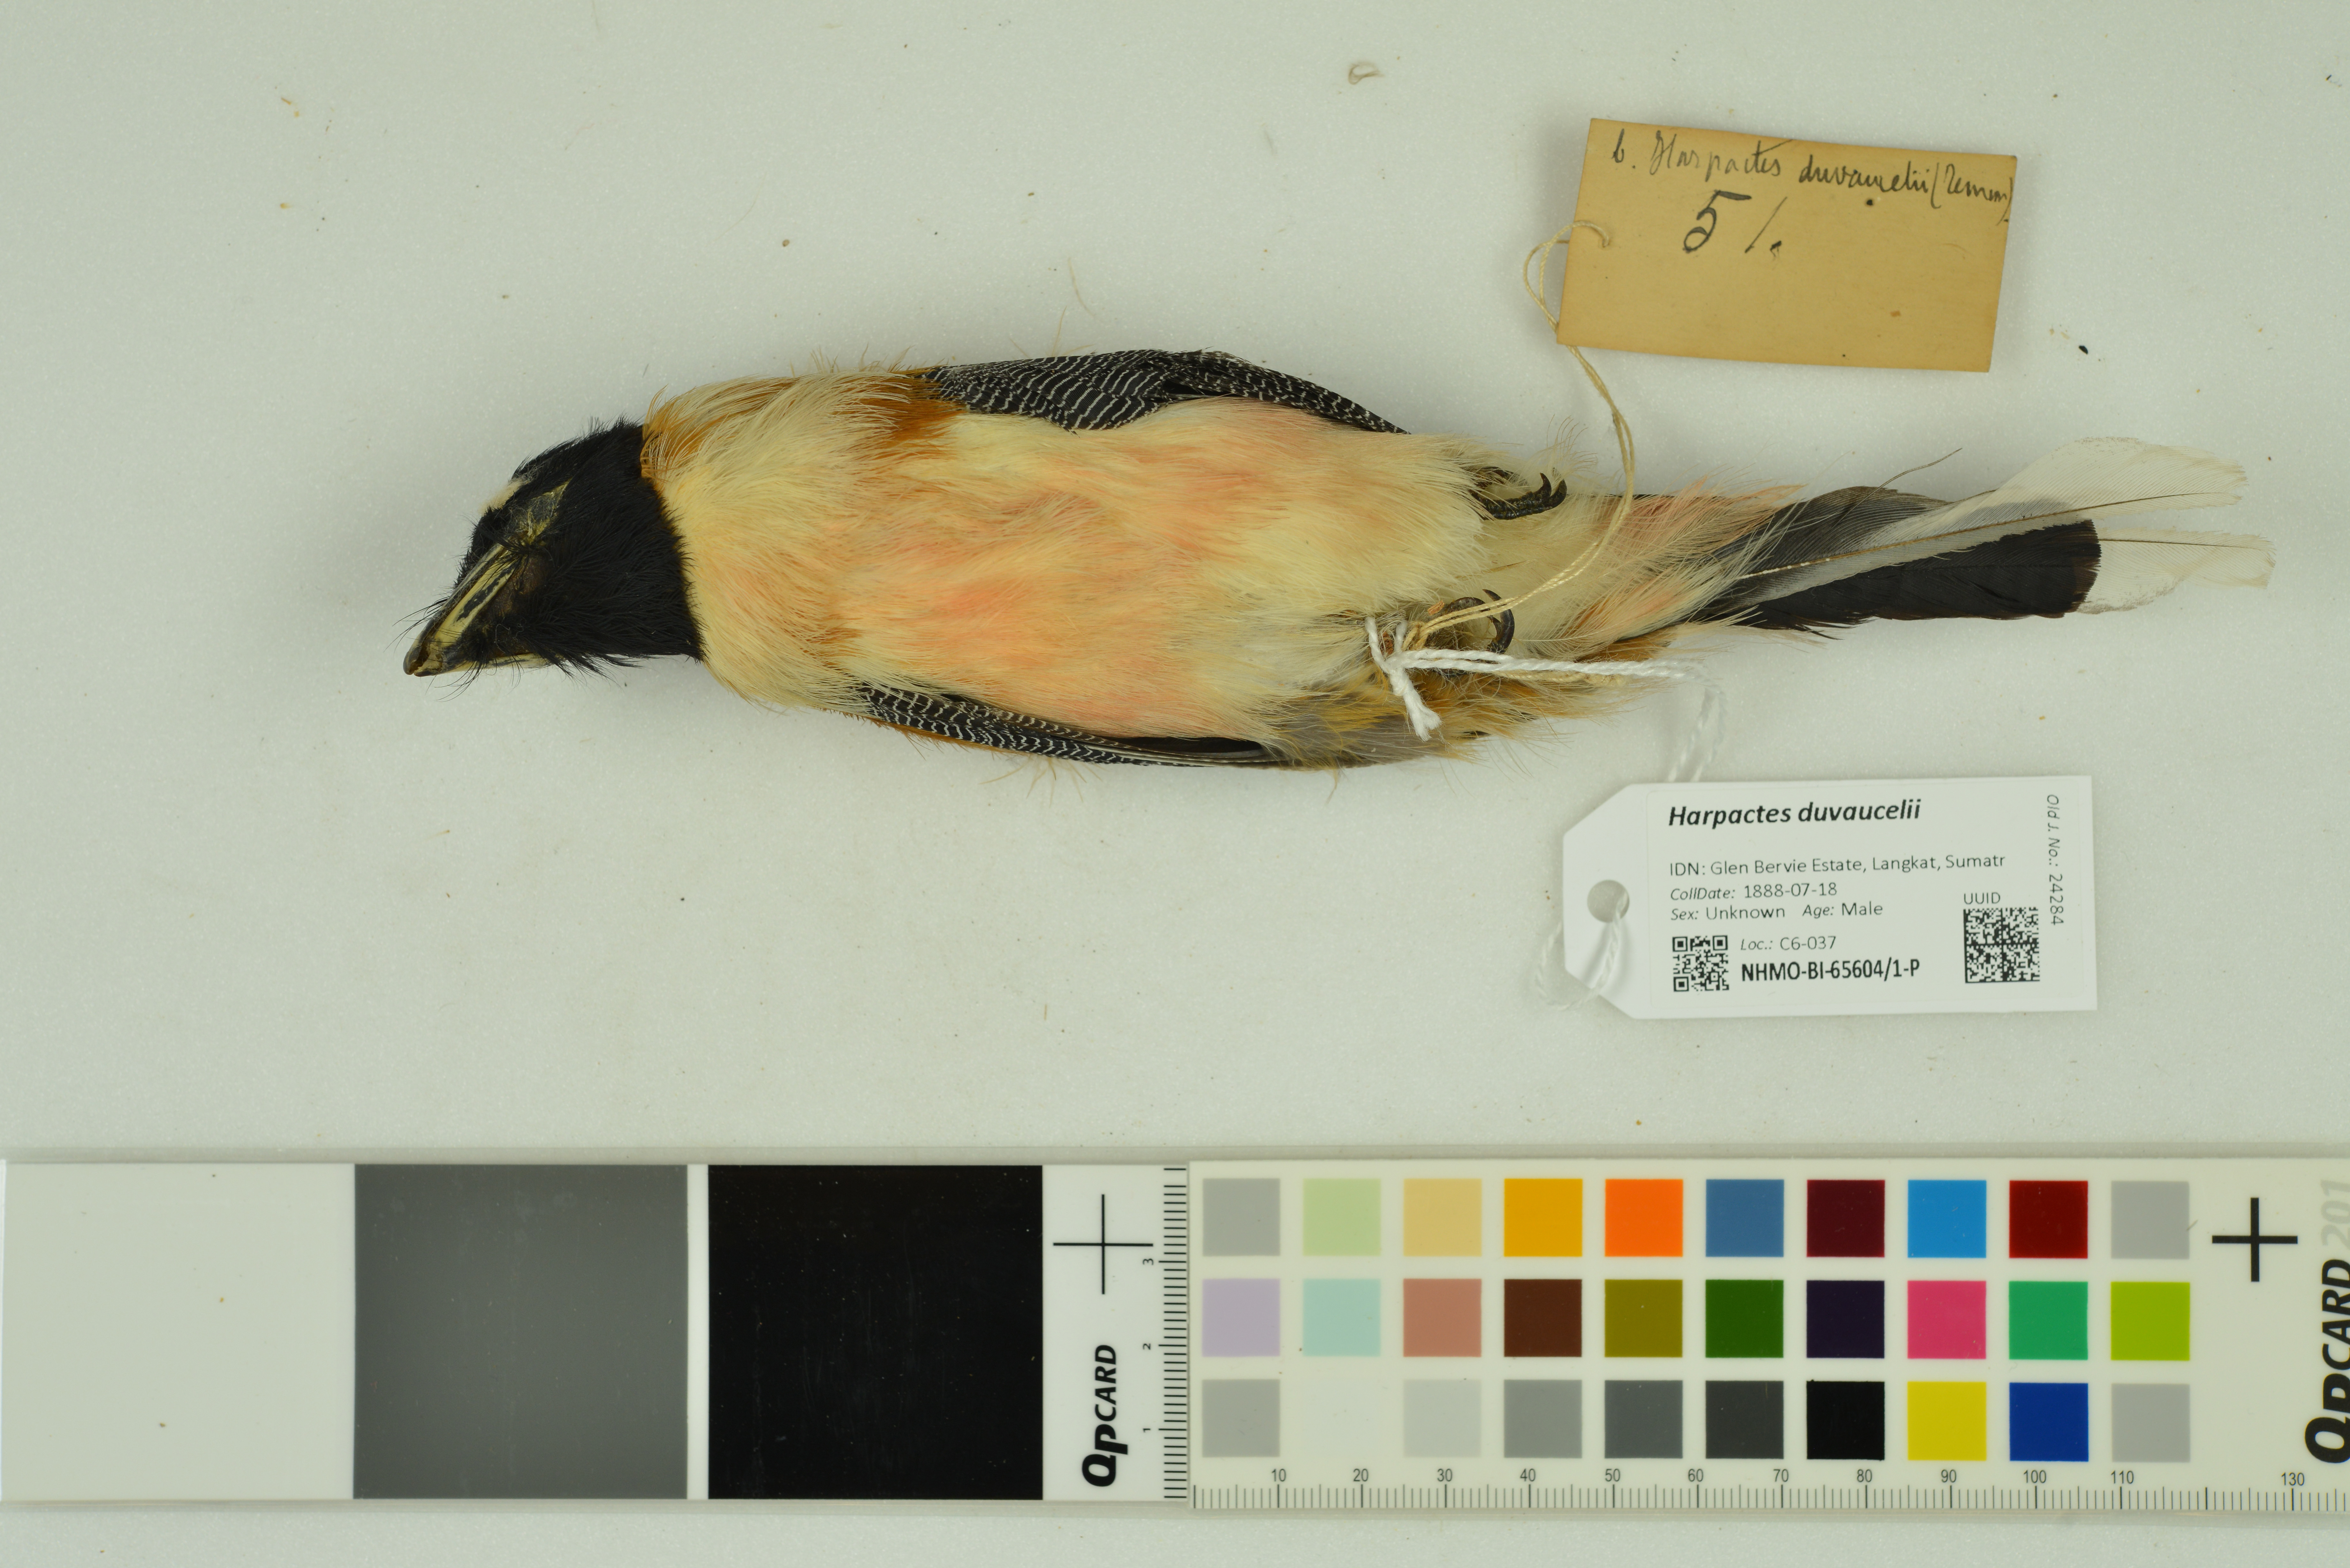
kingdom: Animalia
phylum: Chordata
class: Aves
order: Trogoniformes
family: Trogonidae
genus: Harpactes
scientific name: Harpactes duvaucelii
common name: Scarlet-rumped trogon
